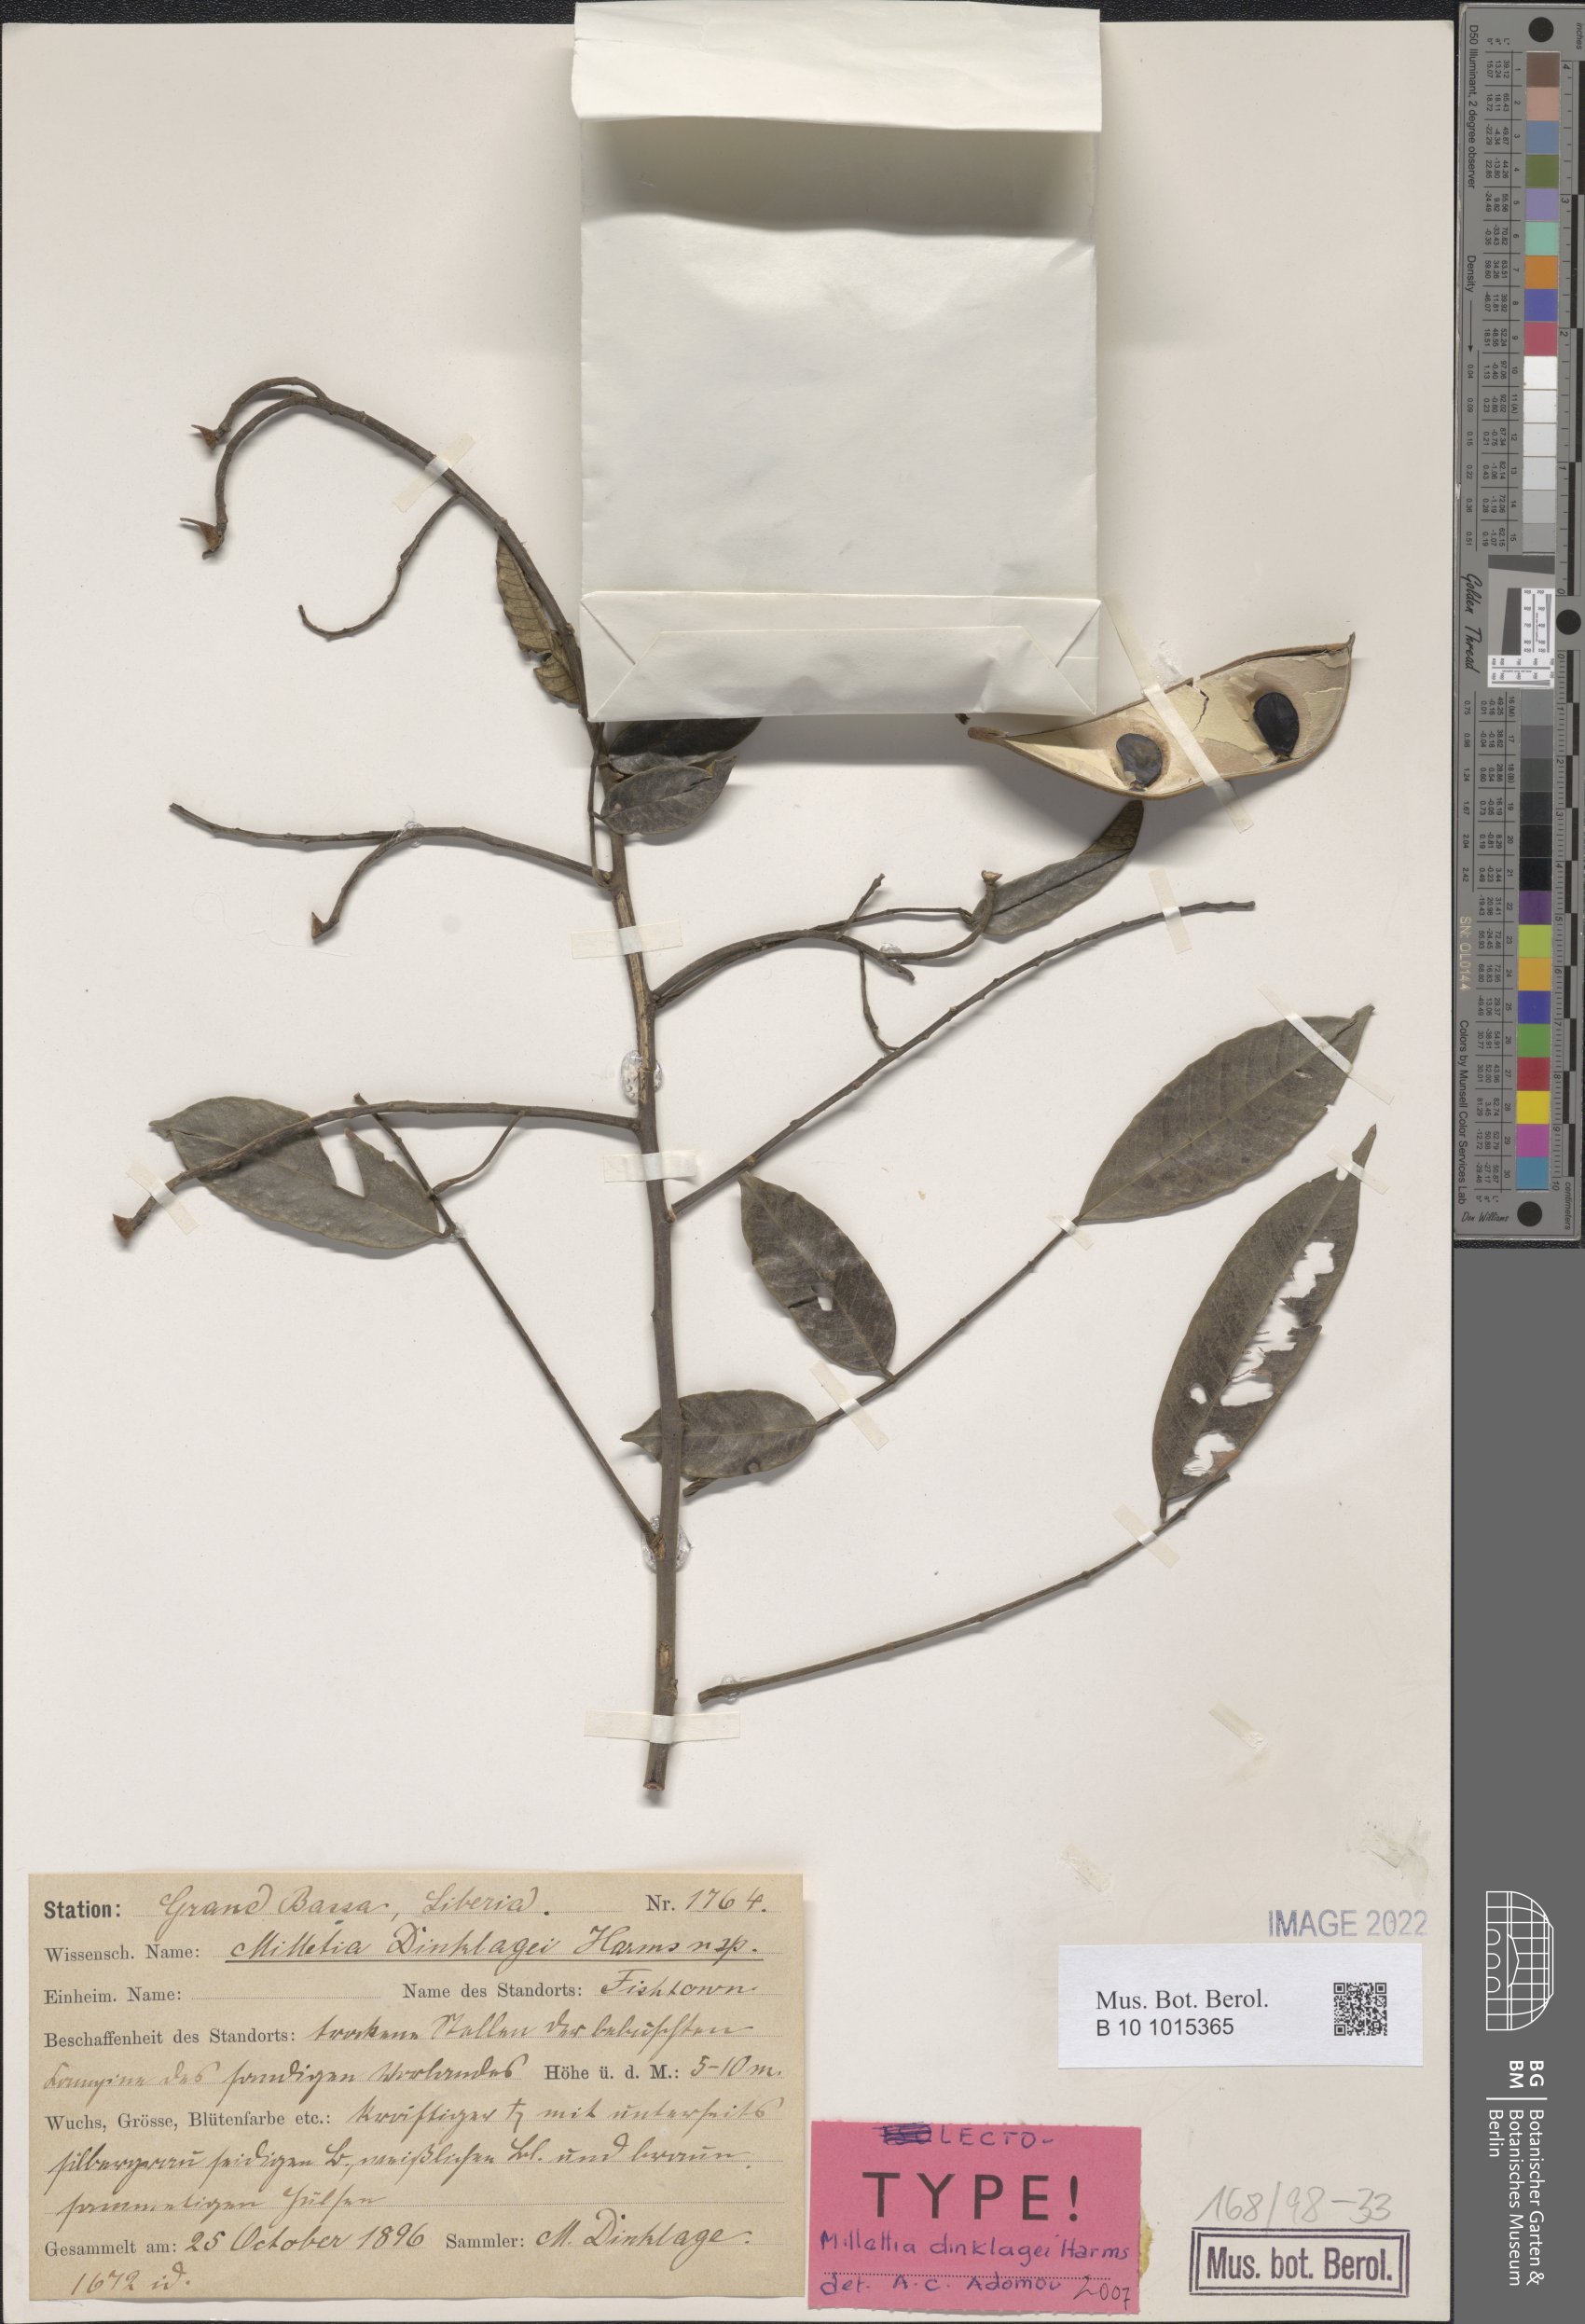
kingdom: Plantae
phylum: Tracheophyta
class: Magnoliopsida
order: Fabales
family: Fabaceae
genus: Millettia
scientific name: Millettia dinklagei
